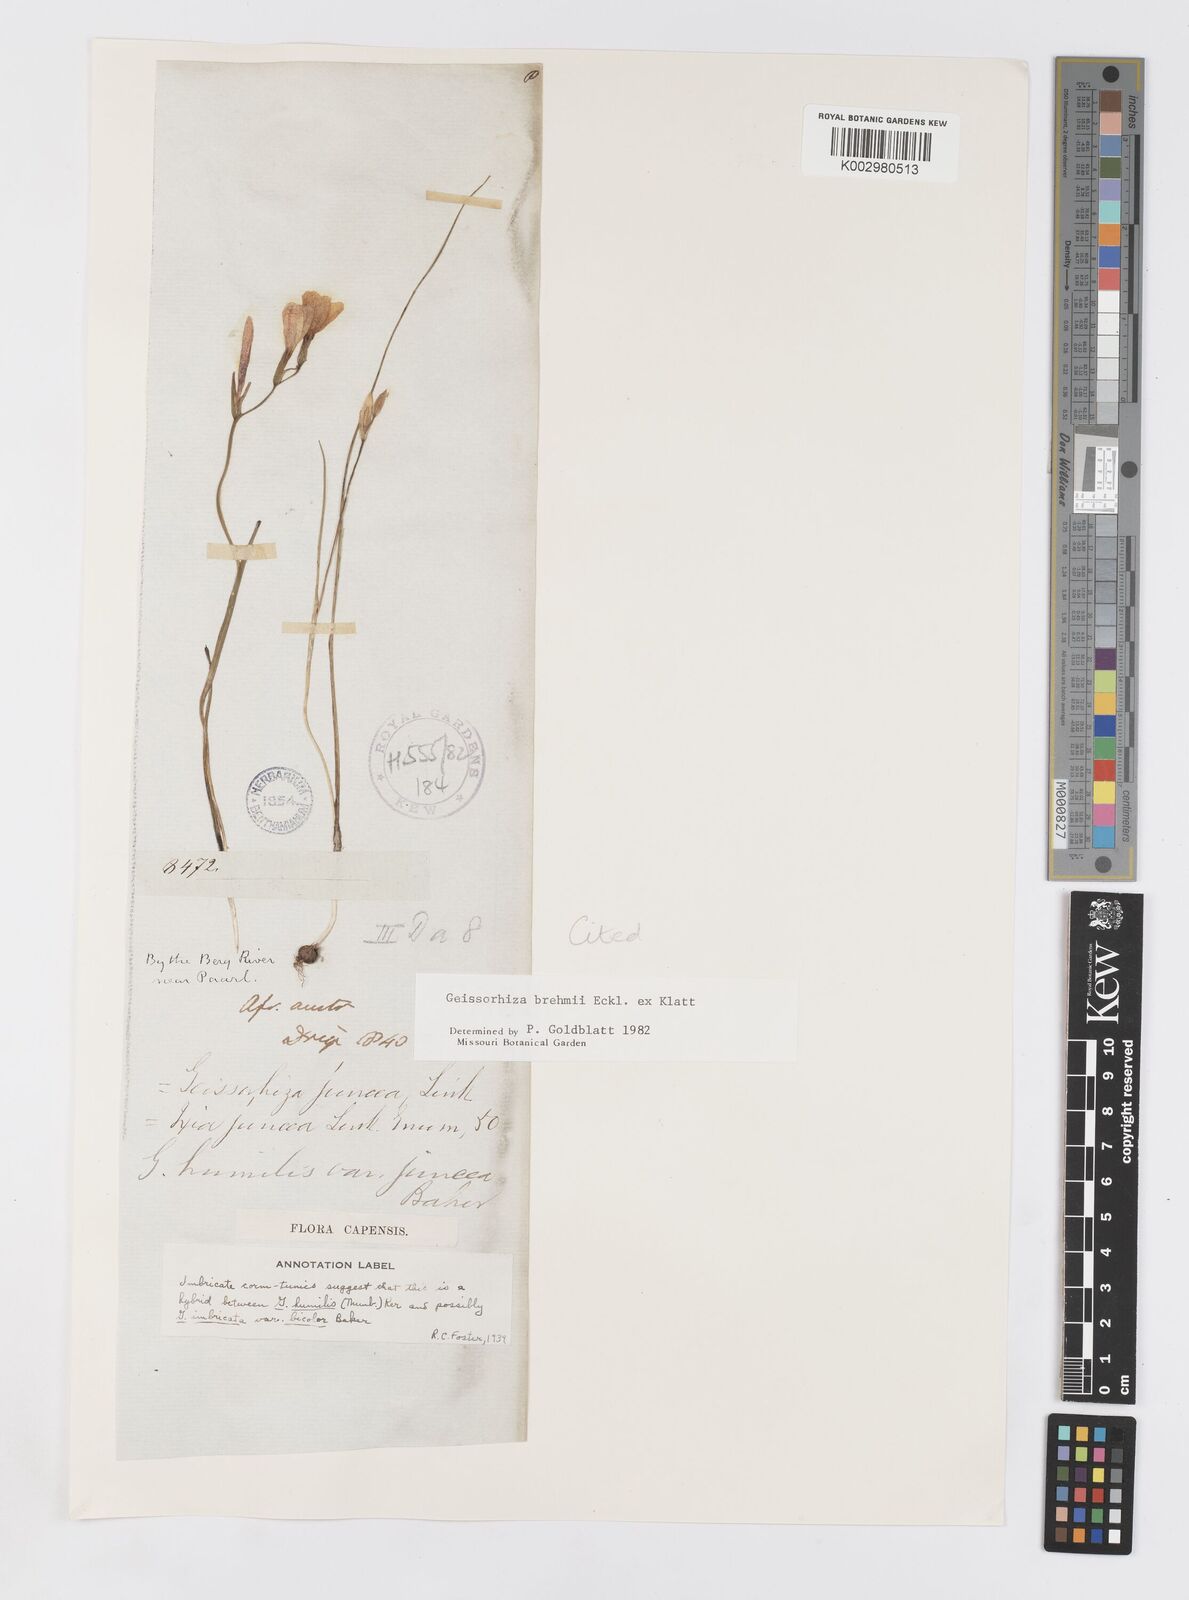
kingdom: Plantae
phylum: Tracheophyta
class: Liliopsida
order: Asparagales
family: Iridaceae
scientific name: Iridaceae
